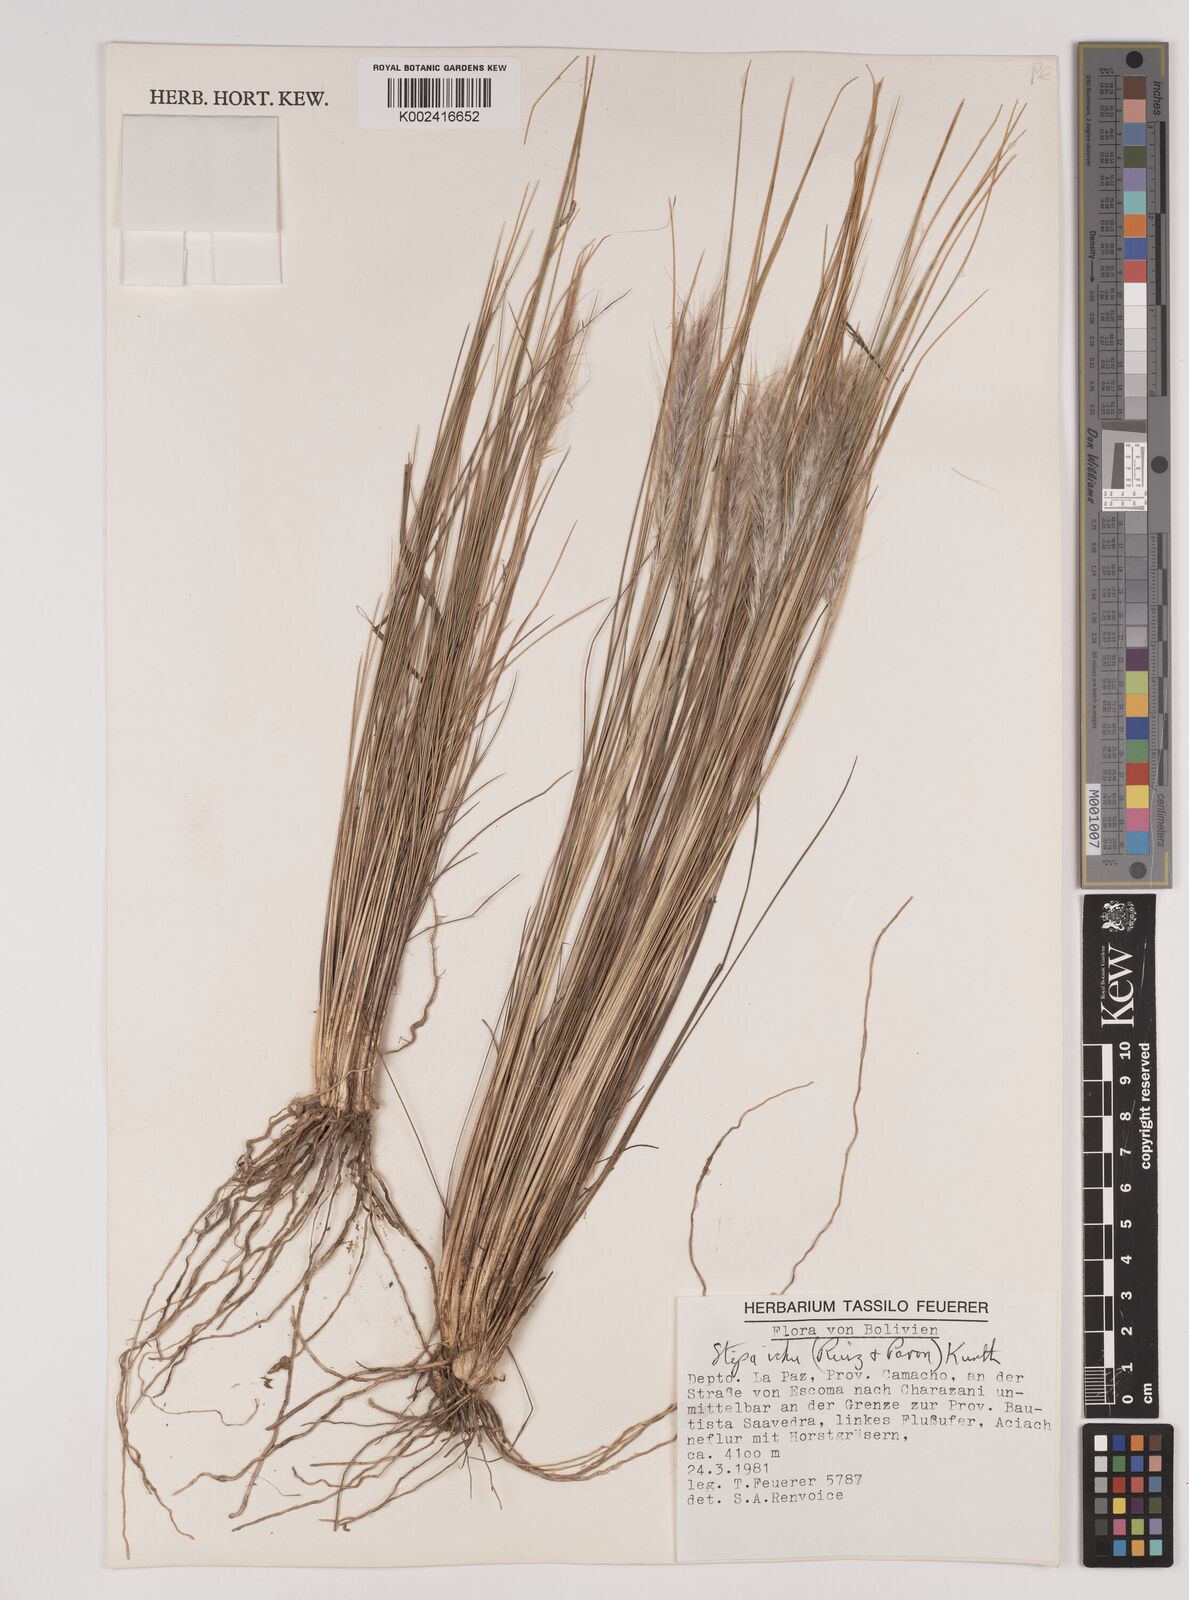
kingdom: Plantae
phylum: Tracheophyta
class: Liliopsida
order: Poales
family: Poaceae
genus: Stipa
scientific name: Stipa pungens
